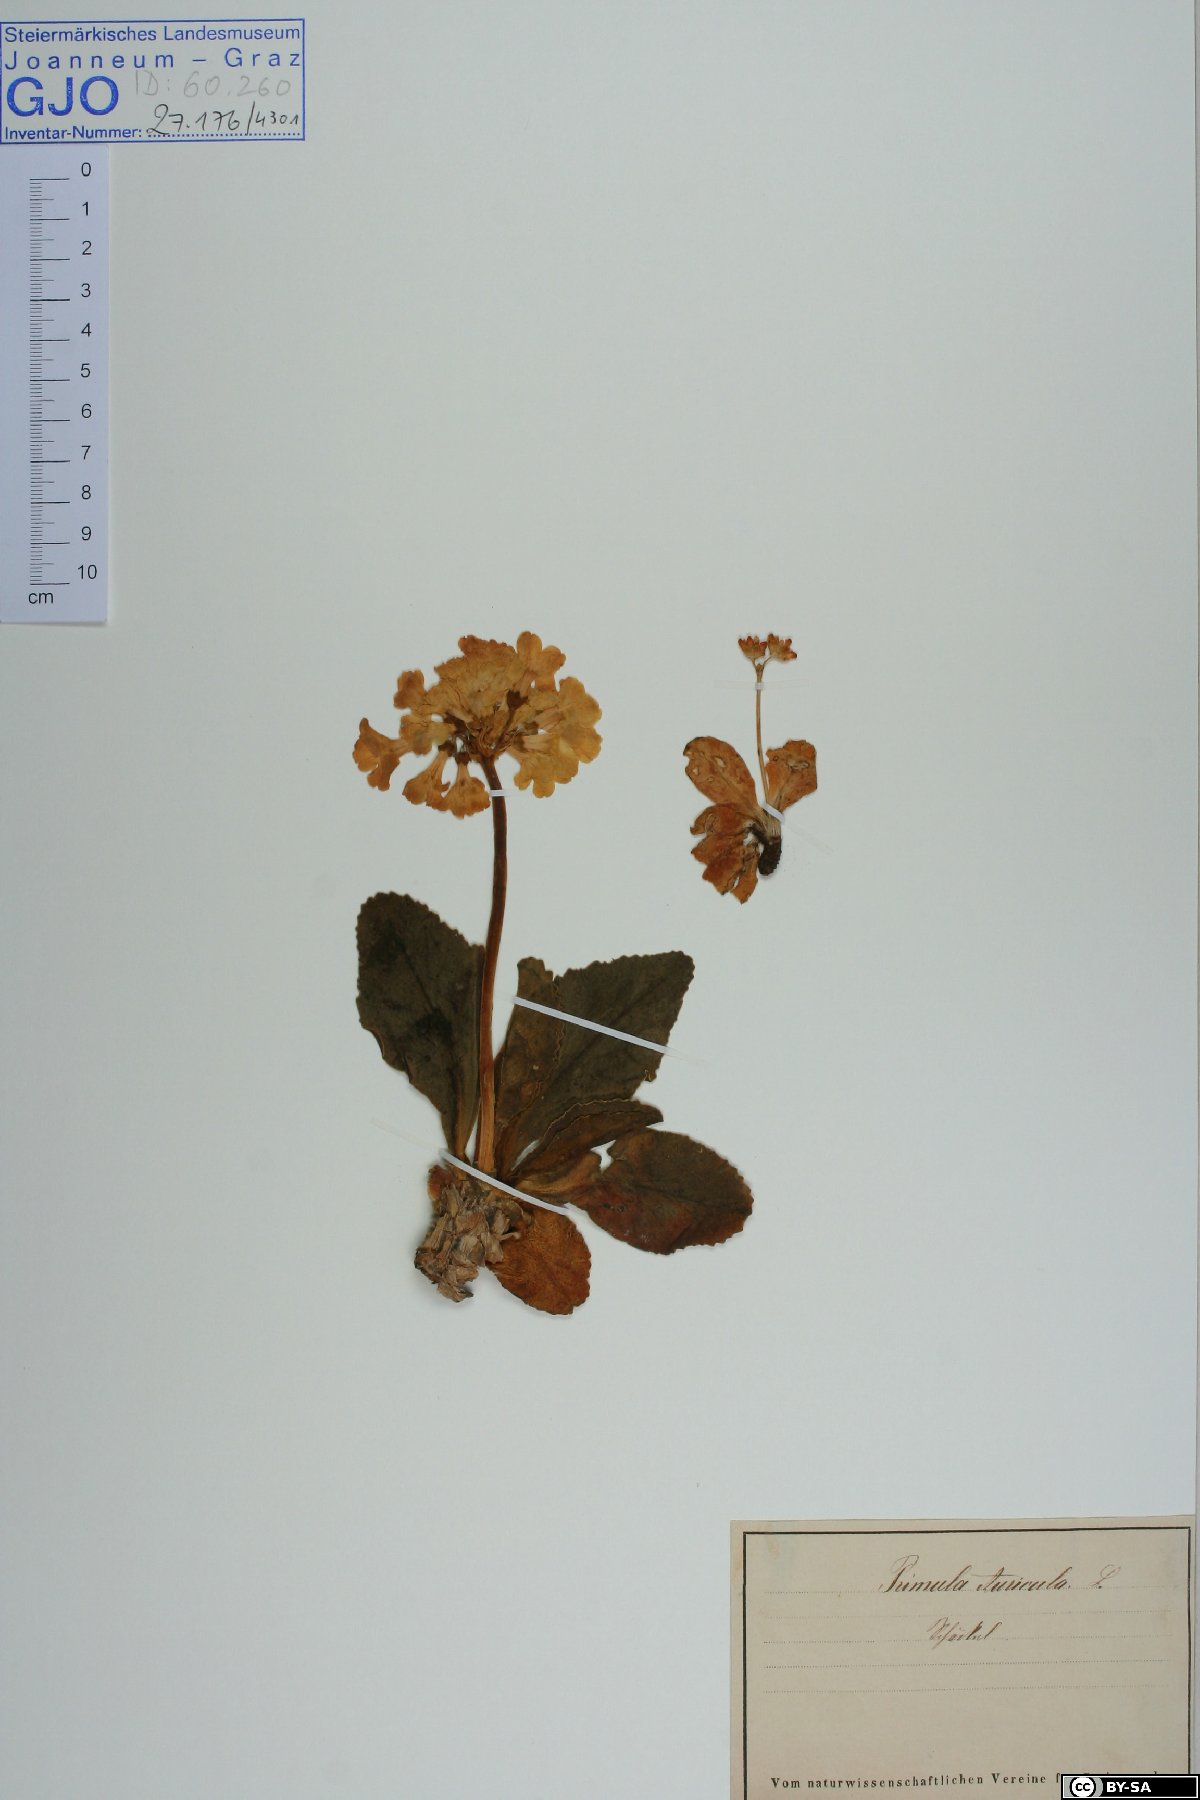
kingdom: Plantae
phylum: Tracheophyta
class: Magnoliopsida
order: Ericales
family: Primulaceae
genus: Primula
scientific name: Primula auricula
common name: Auricula
